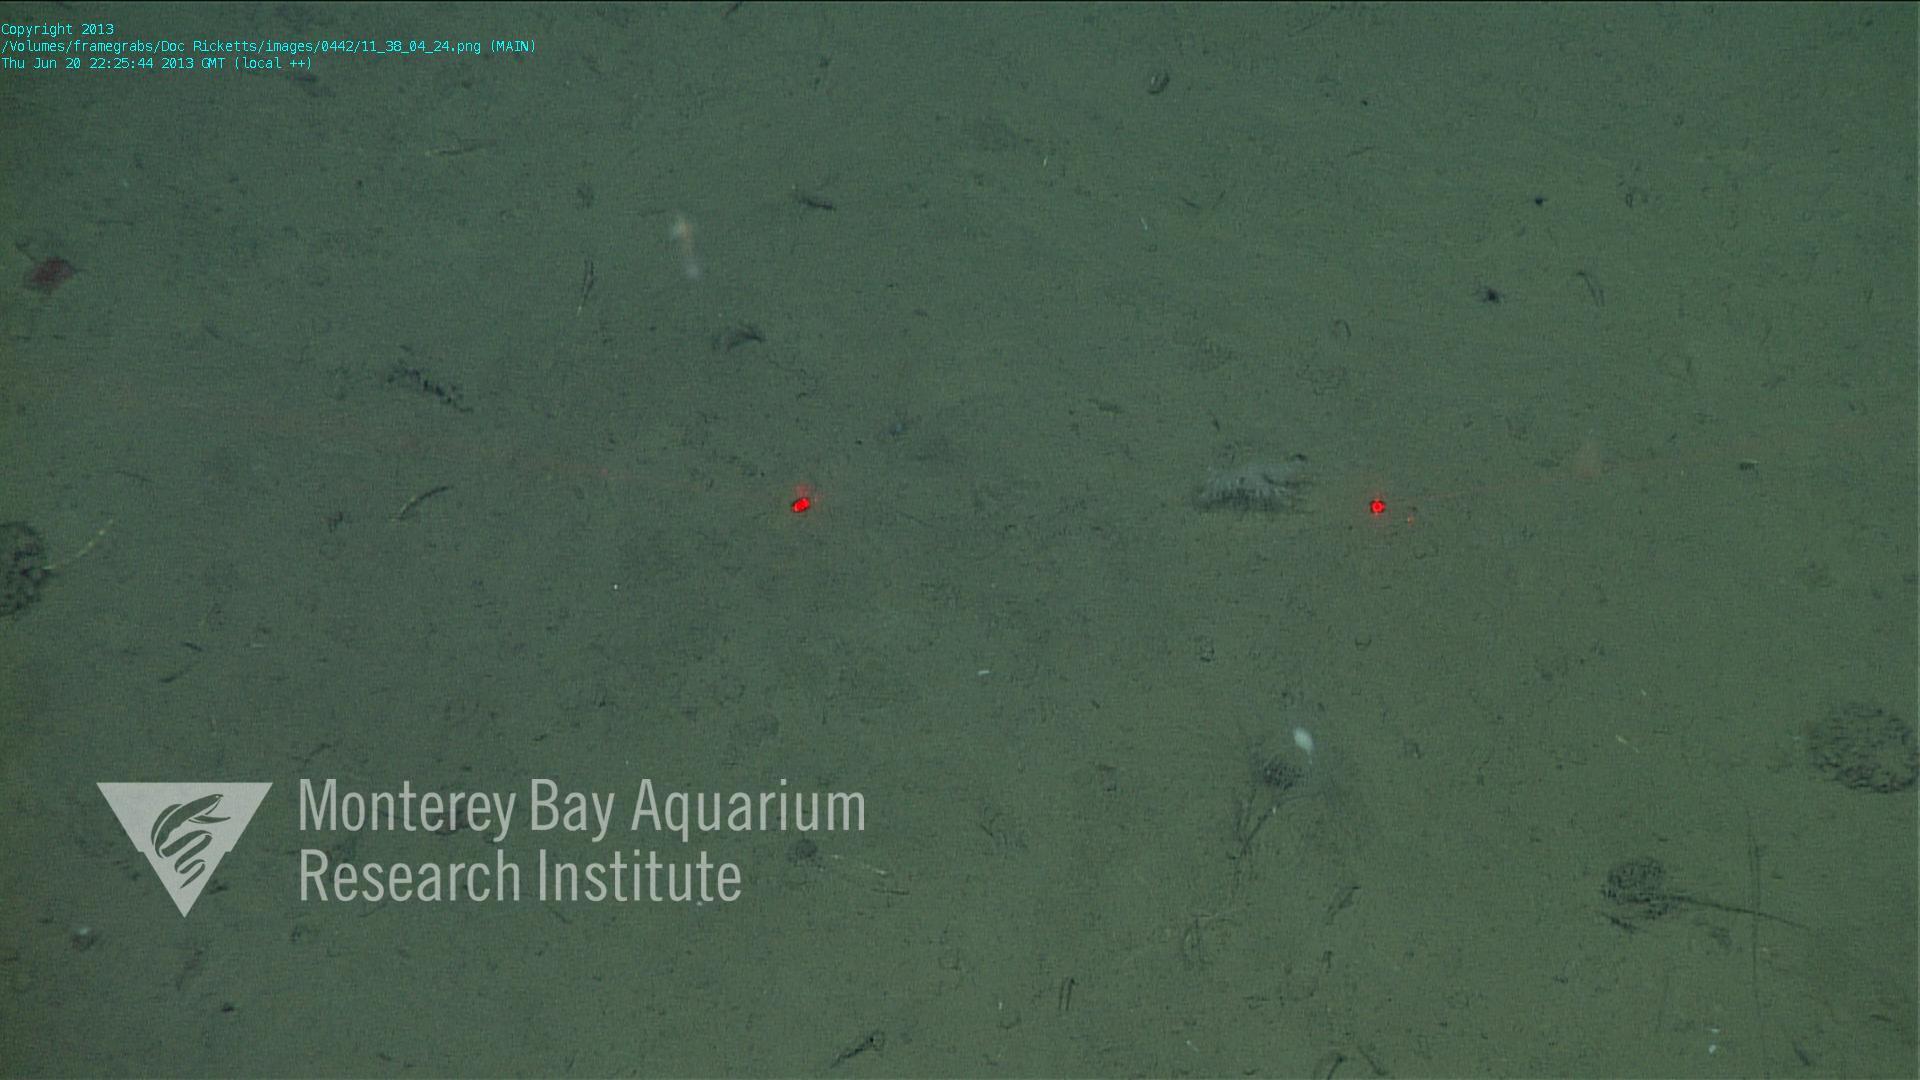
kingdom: Animalia
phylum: Porifera
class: Demospongiae
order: Poecilosclerida
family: Cladorhizidae
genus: Cladorhiza
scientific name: Cladorhiza
